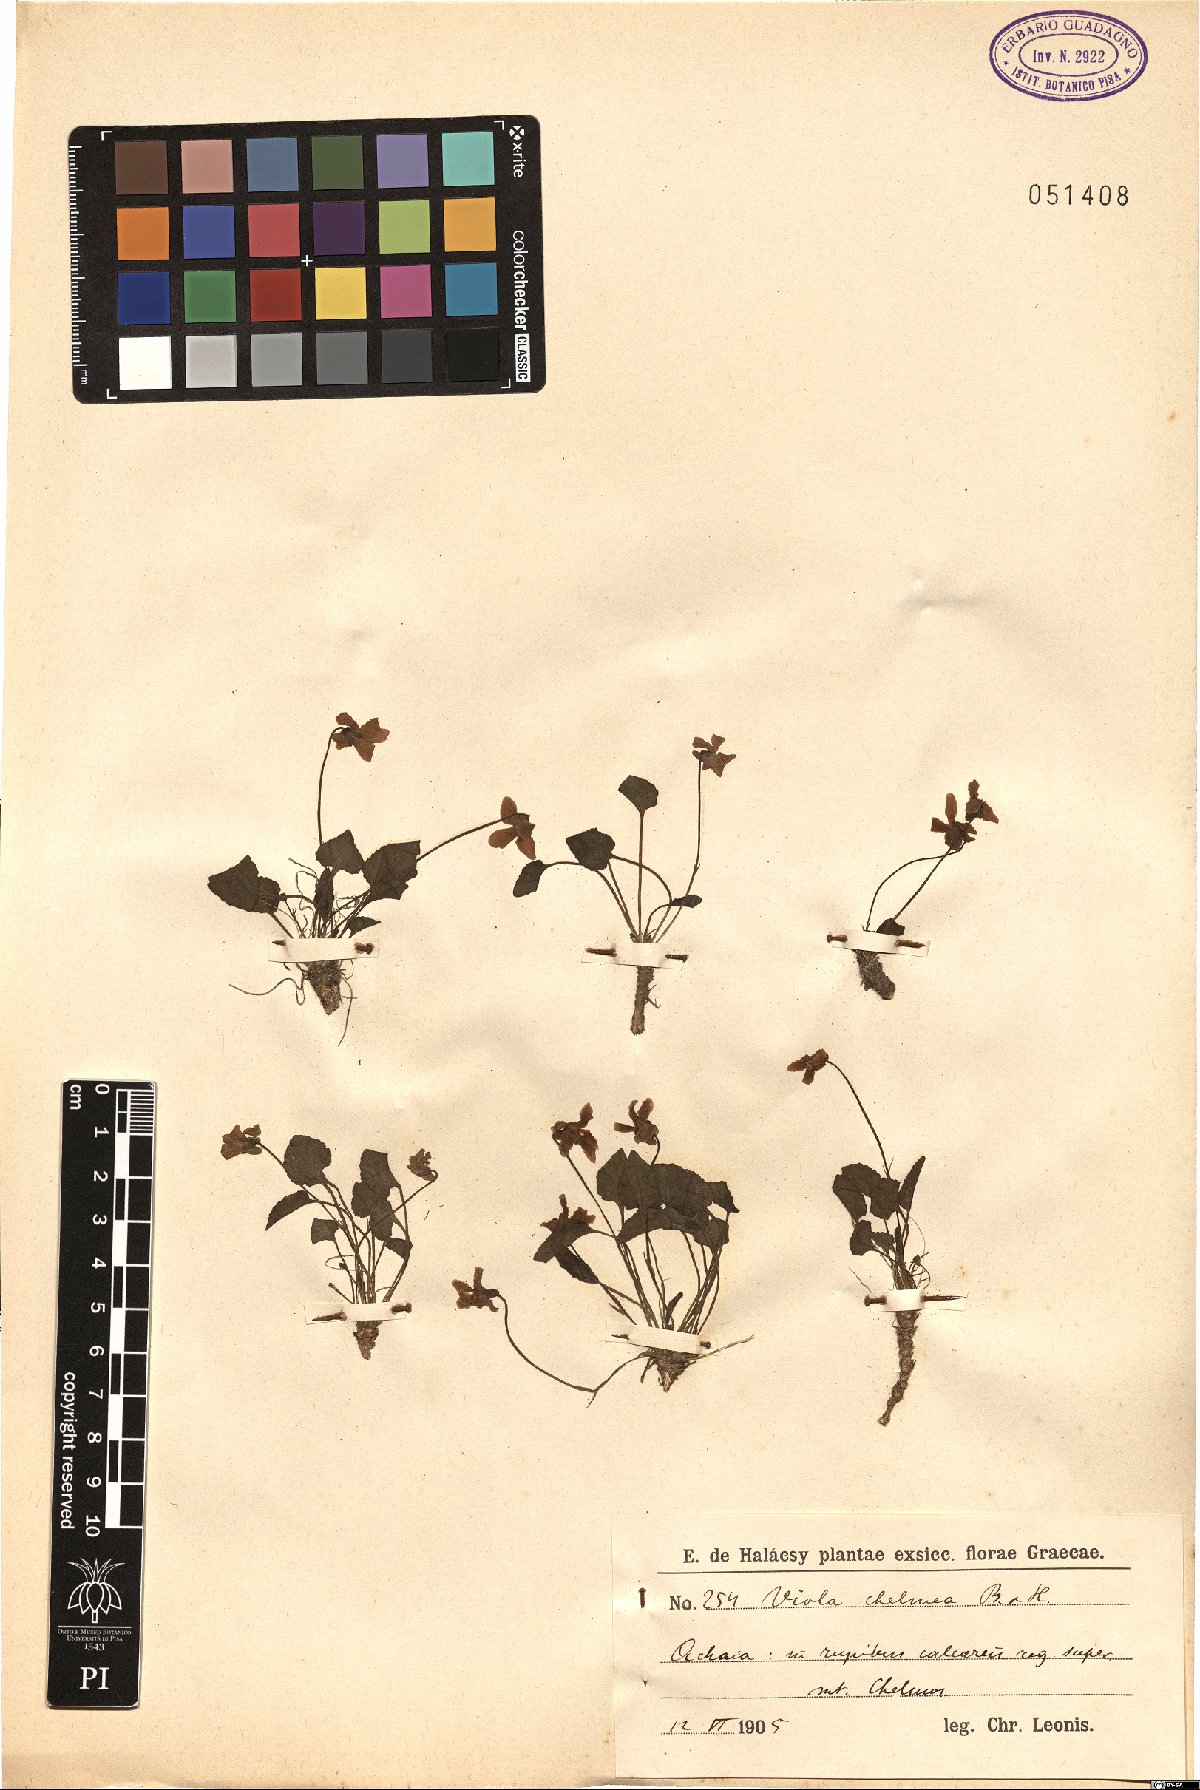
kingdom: Plantae
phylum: Tracheophyta
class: Magnoliopsida
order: Malpighiales
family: Violaceae
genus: Viola
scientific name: Viola chelmea
